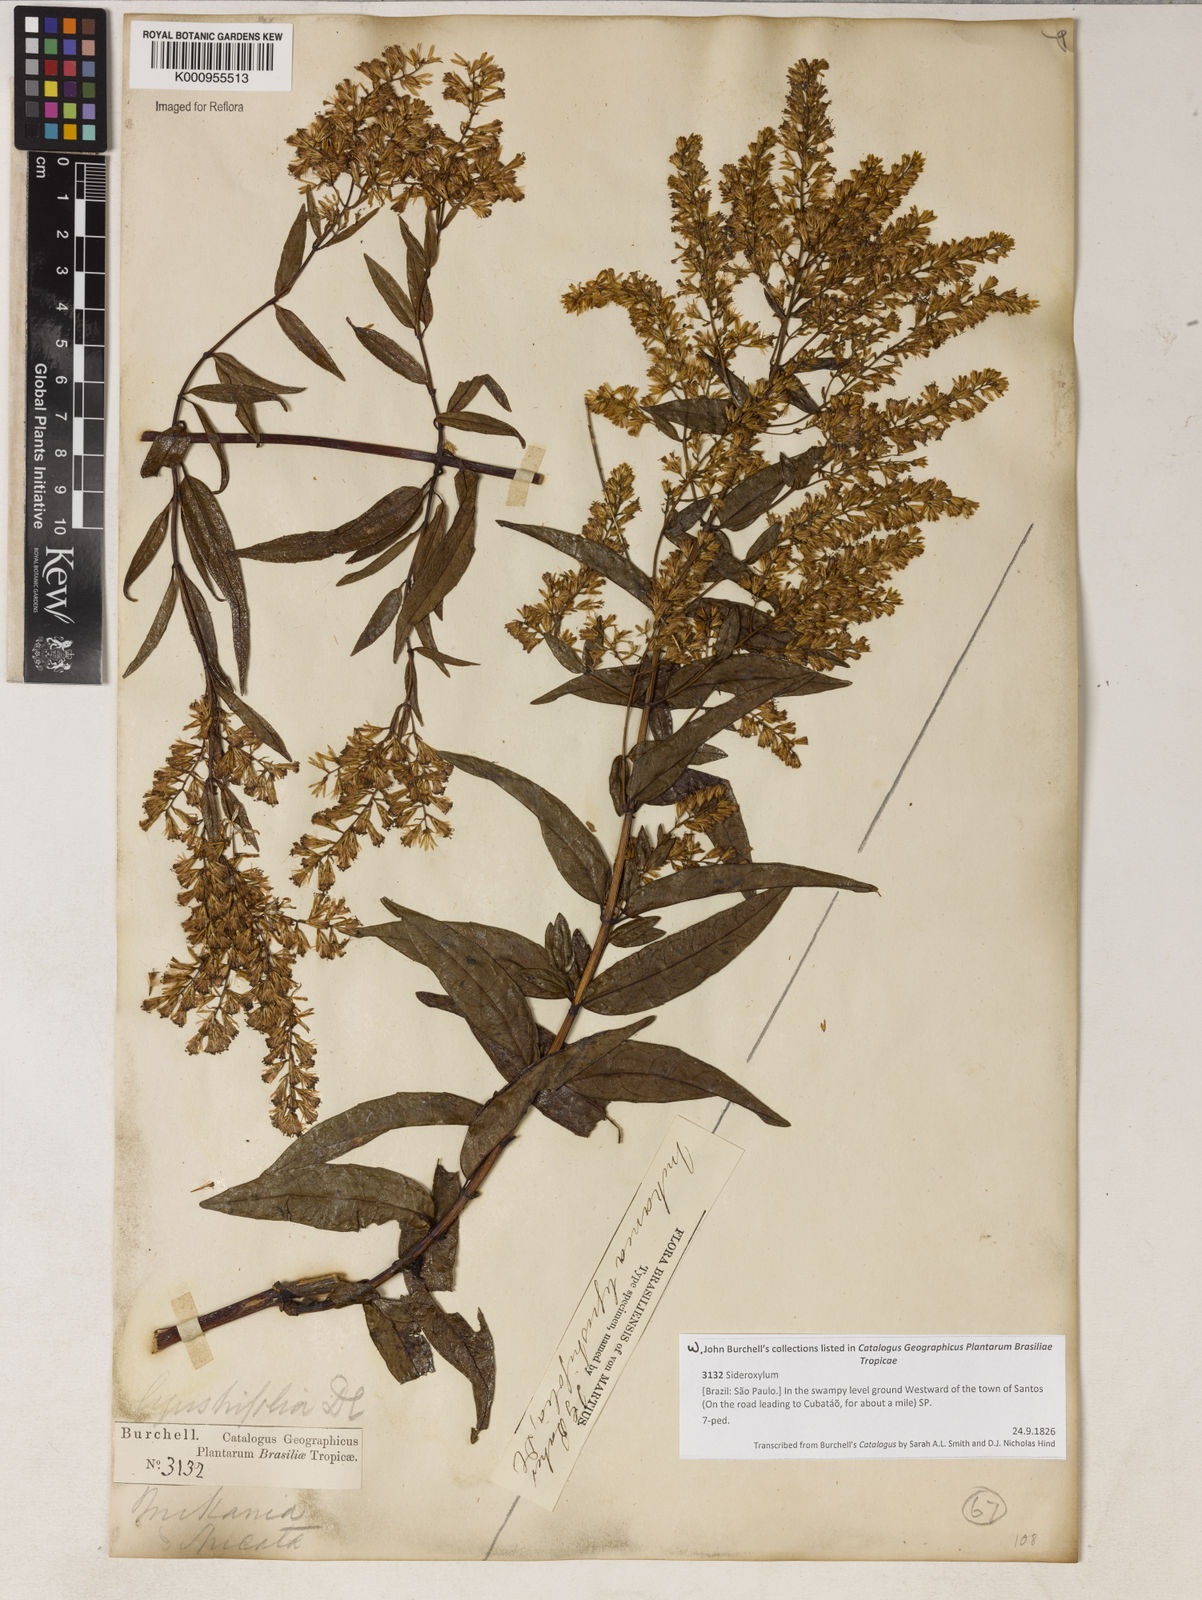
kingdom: Plantae
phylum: Tracheophyta
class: Magnoliopsida
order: Asterales
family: Asteraceae
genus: Mikania
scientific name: Mikania ligustrifolia
